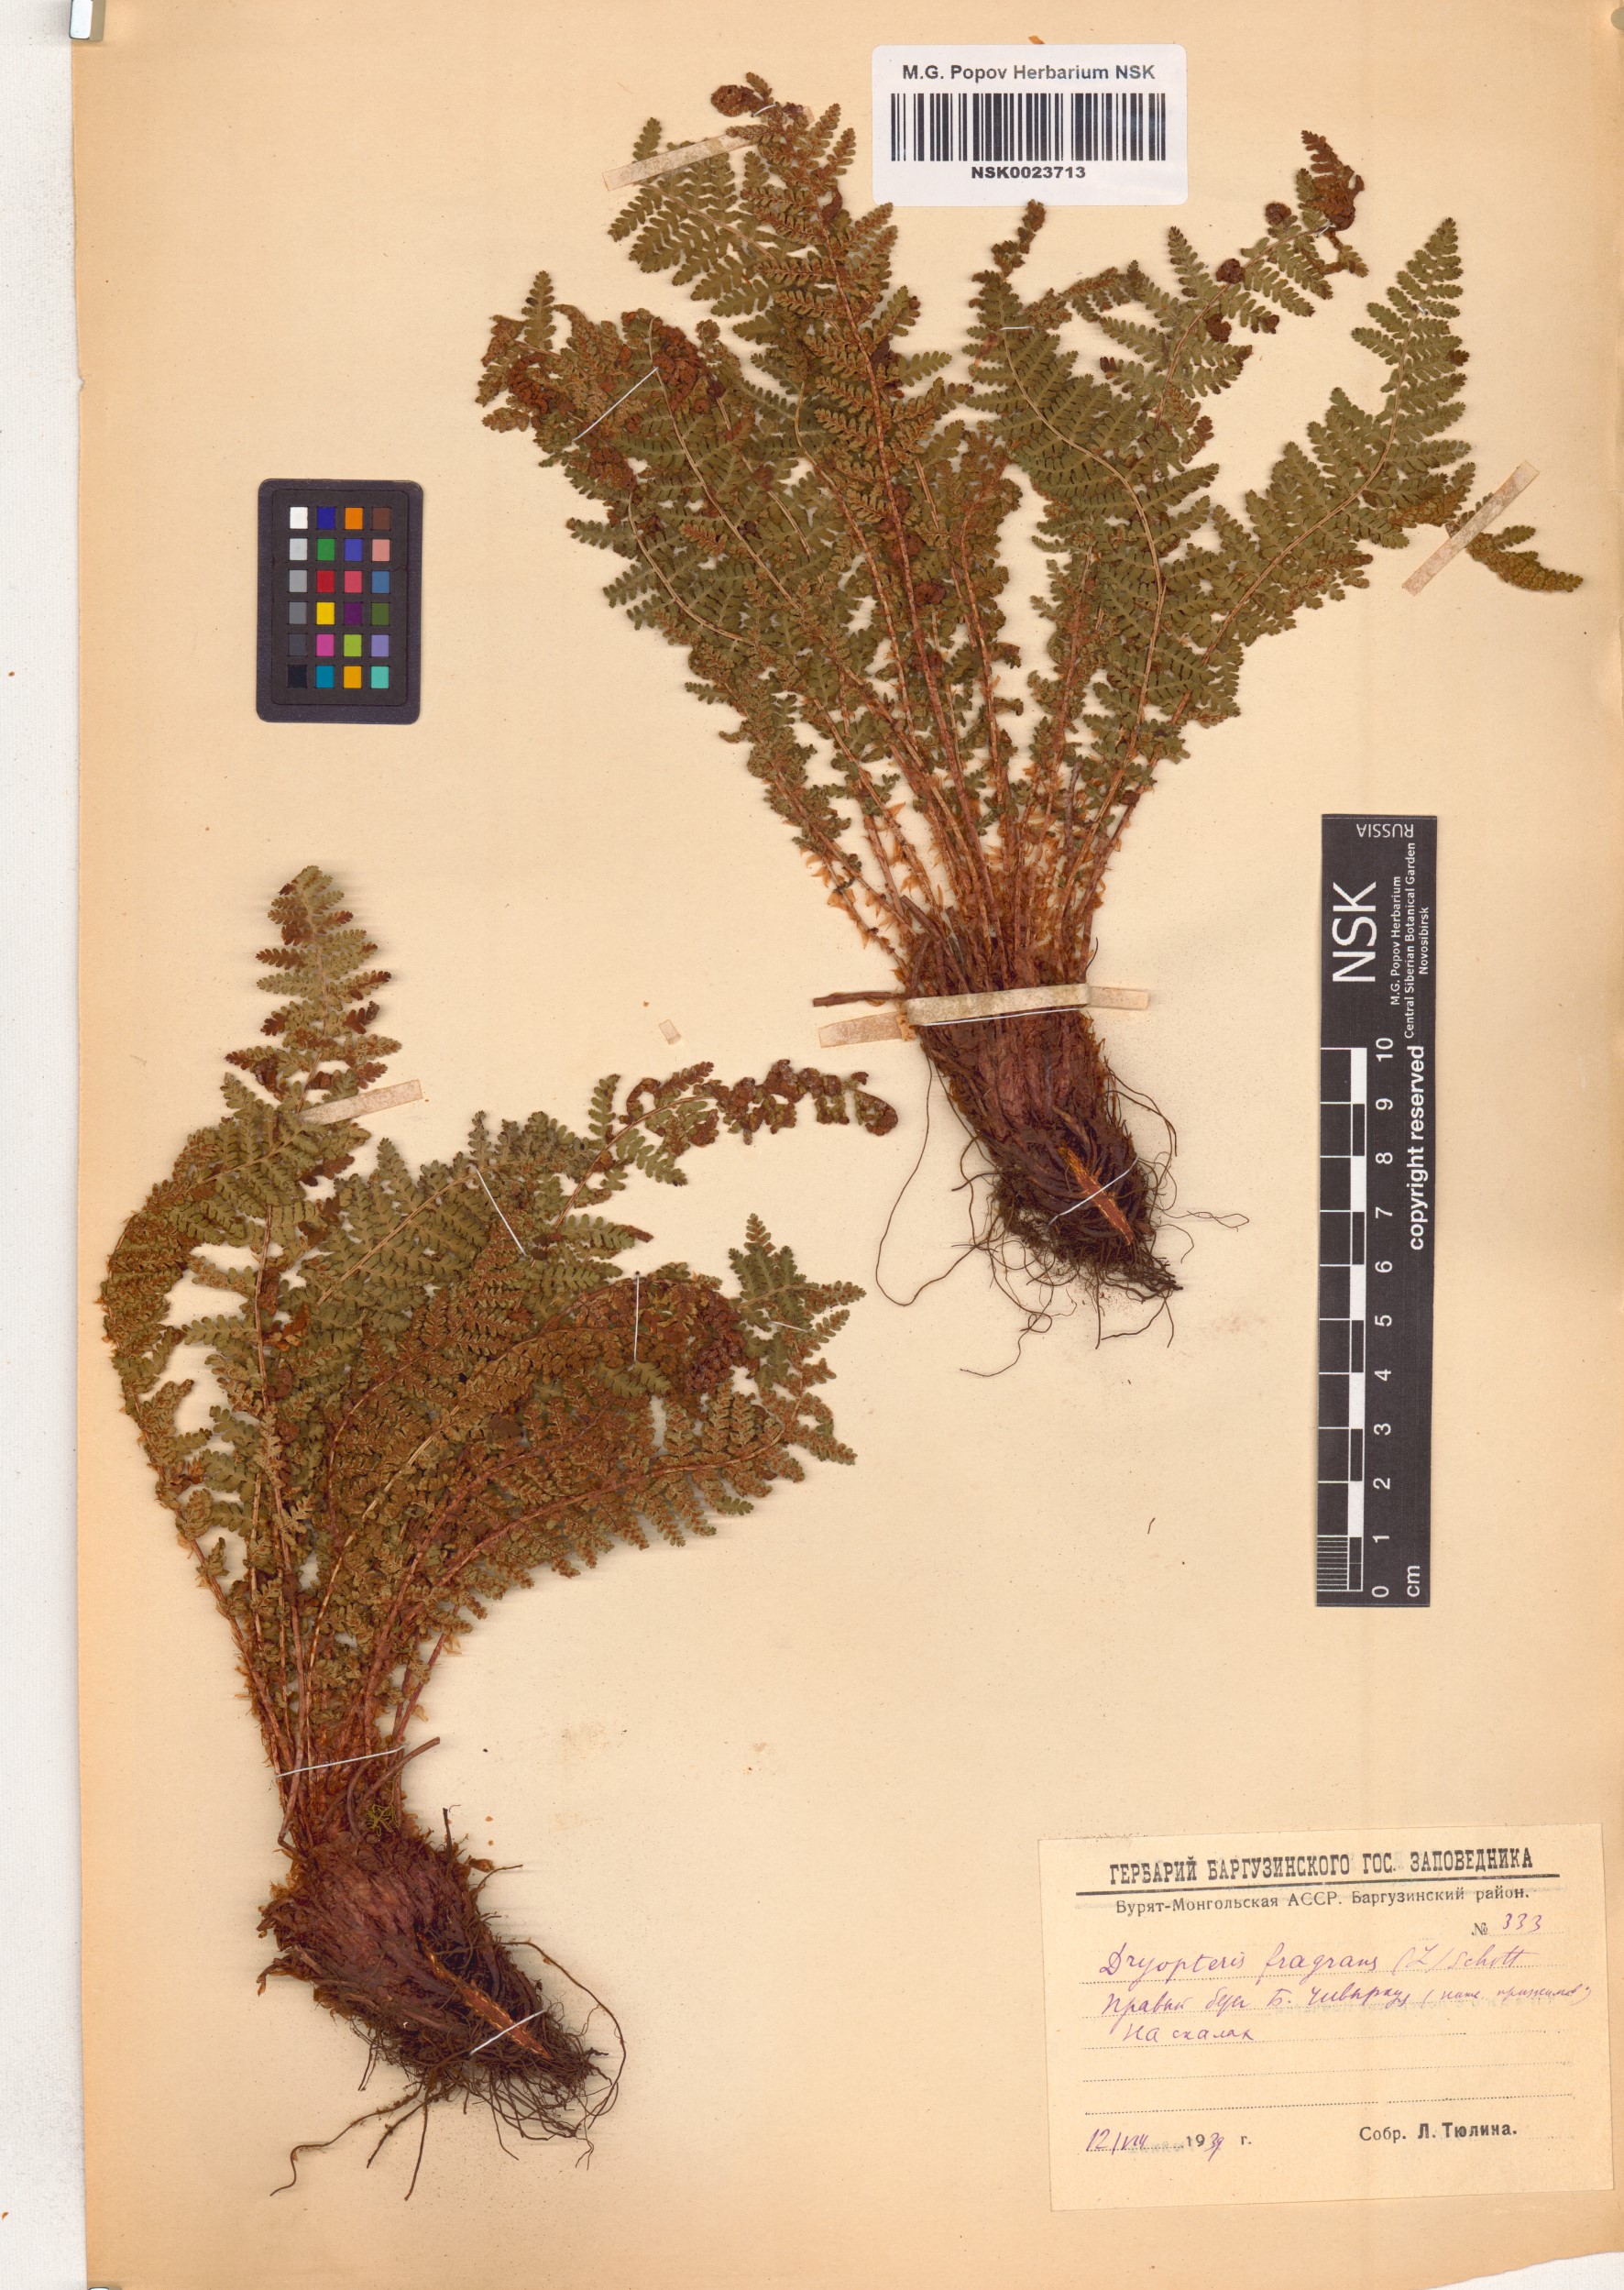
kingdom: Plantae
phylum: Tracheophyta
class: Polypodiopsida
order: Polypodiales
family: Dryopteridaceae
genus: Dryopteris
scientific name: Dryopteris fragrans
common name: Fragrant wood fern
